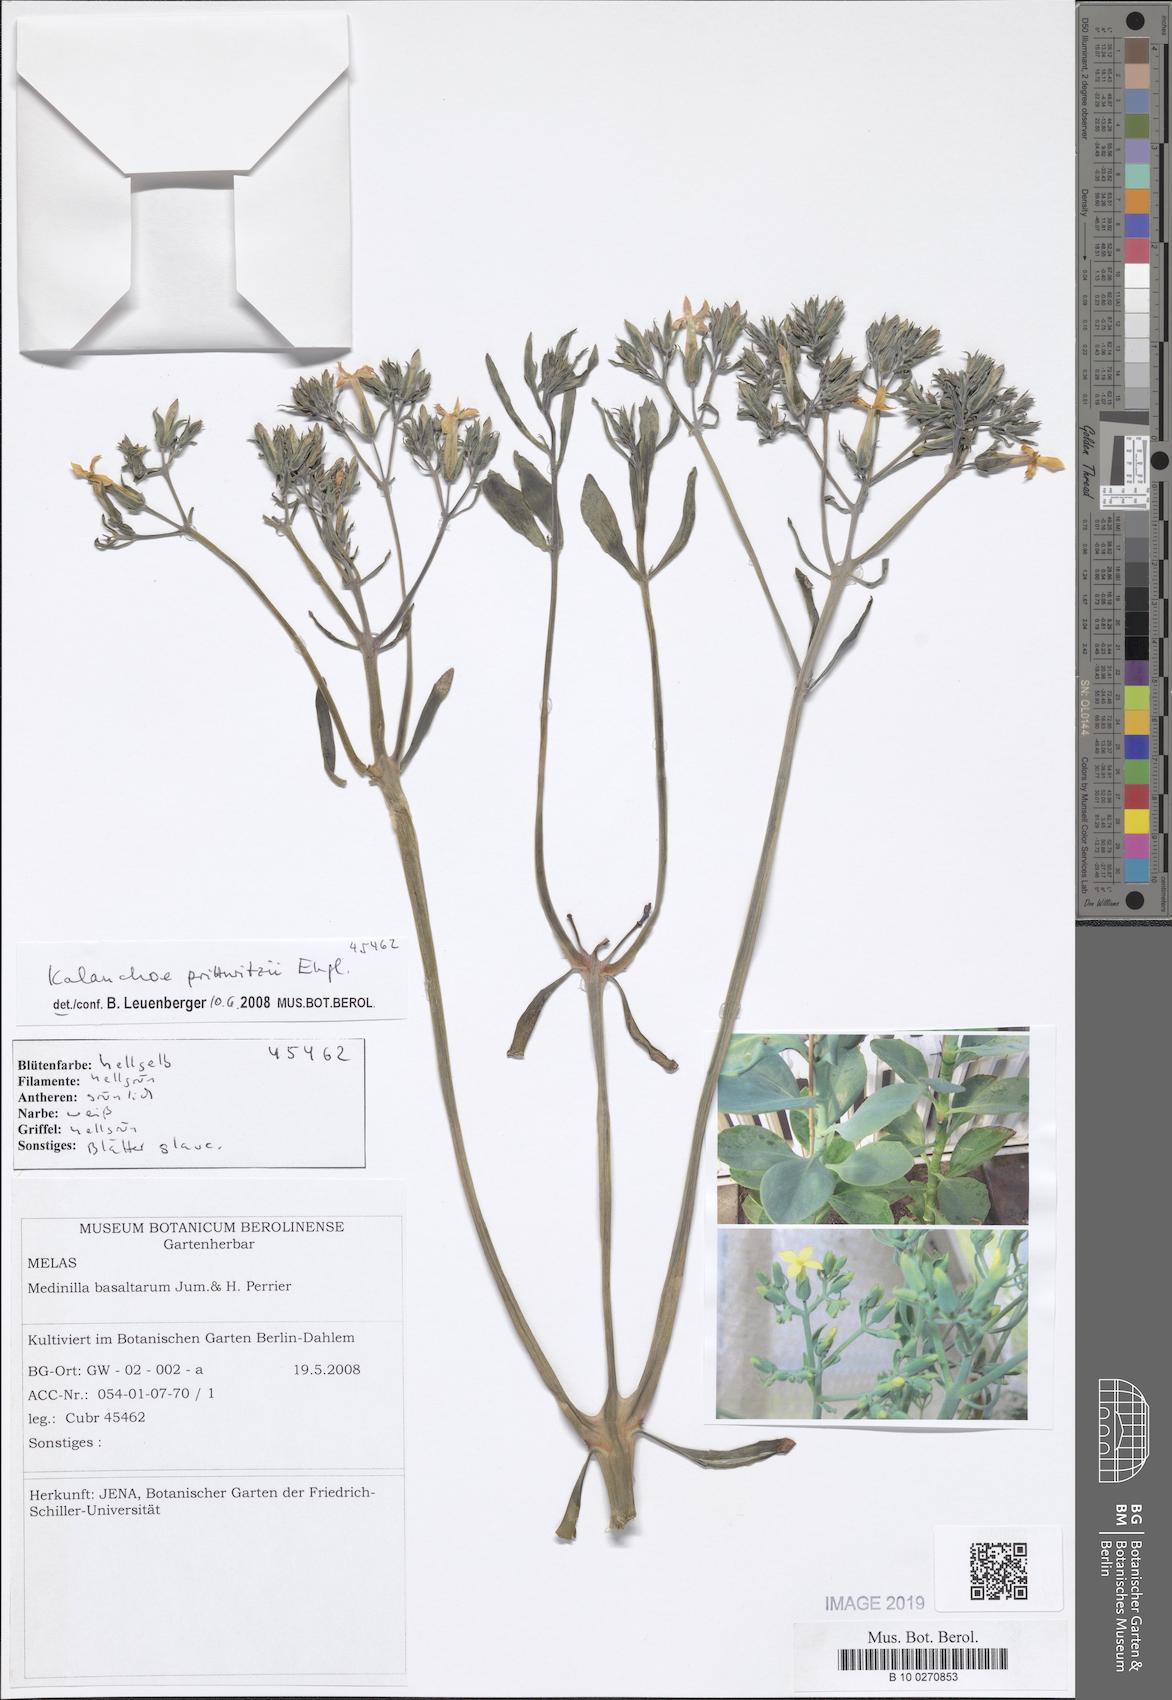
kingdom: Plantae
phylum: Tracheophyta
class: Magnoliopsida
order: Saxifragales
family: Crassulaceae
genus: Kalanchoe
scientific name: Kalanchoe prittwitzii
